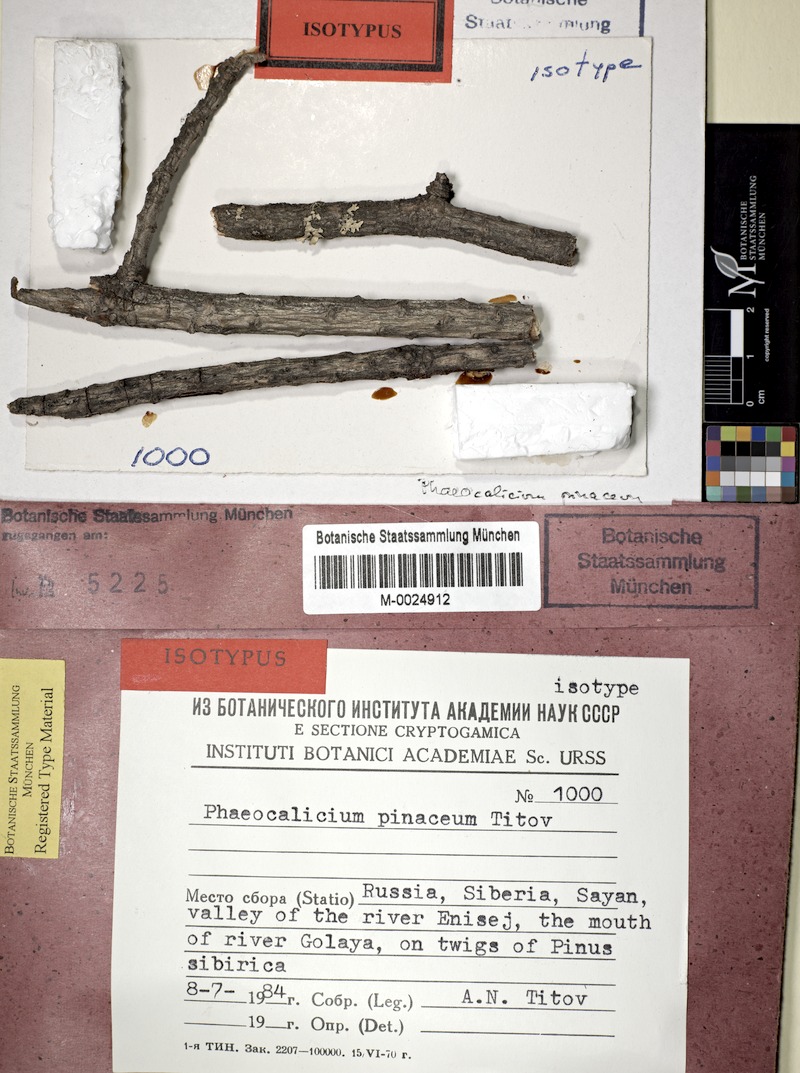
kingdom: Fungi
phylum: Ascomycota
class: Eurotiomycetes
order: Mycocaliciales
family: Mycocaliciaceae
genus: Phaeocalicium
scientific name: Phaeocalicium pinaceum
